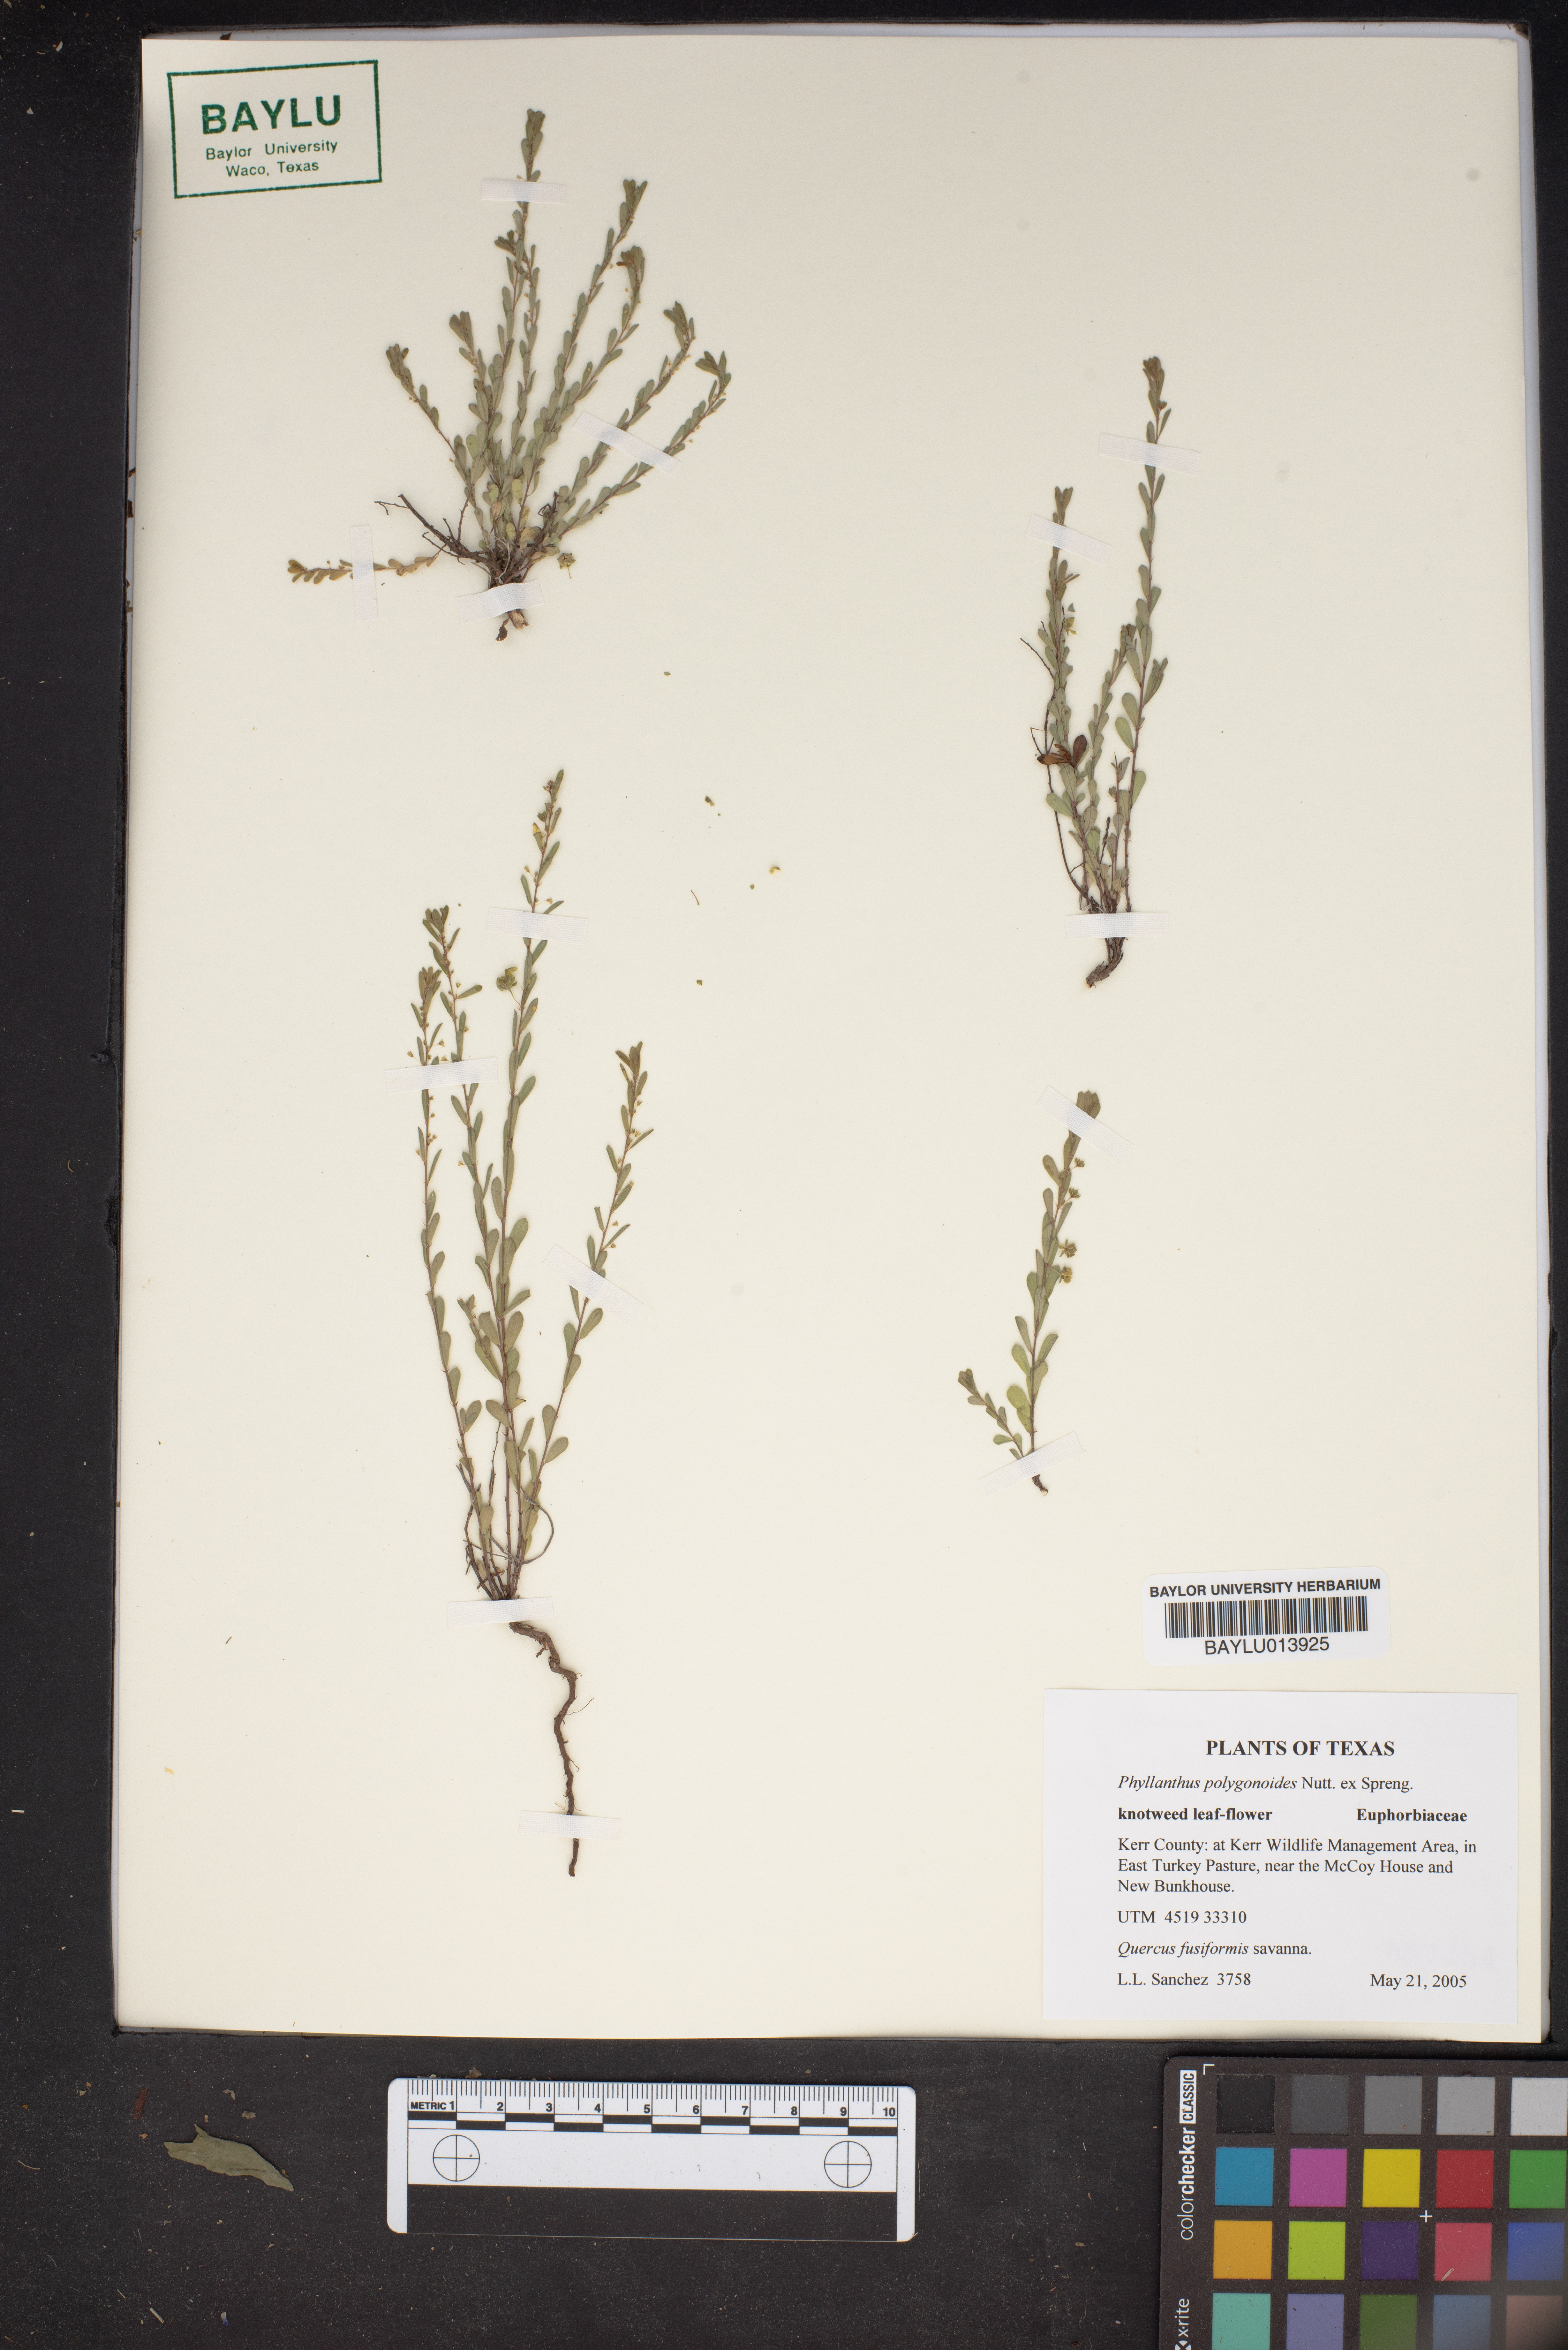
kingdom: Plantae
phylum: Tracheophyta
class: Magnoliopsida
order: Malpighiales
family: Phyllanthaceae
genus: Phyllanthus
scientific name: Phyllanthus polygonoides
